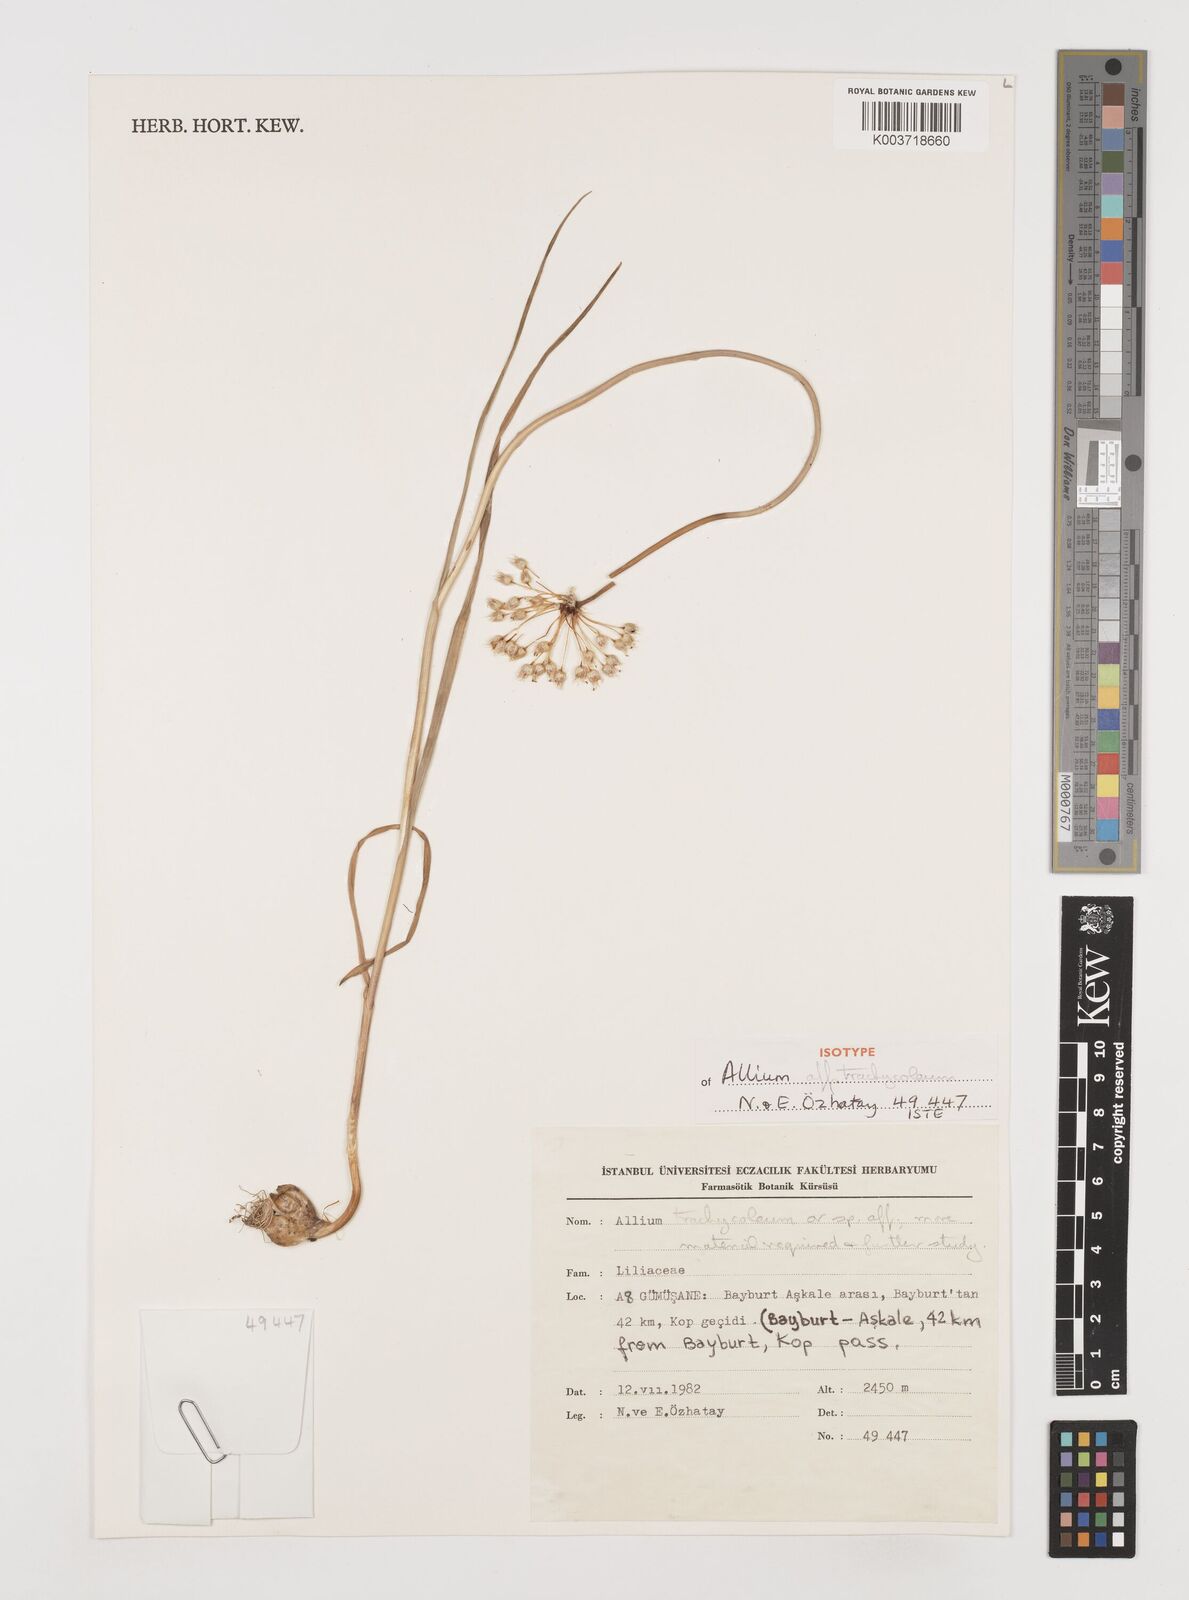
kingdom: Plantae
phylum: Tracheophyta
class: Liliopsida
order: Asparagales
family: Amaryllidaceae
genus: Allium
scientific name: Allium trachycoleum
